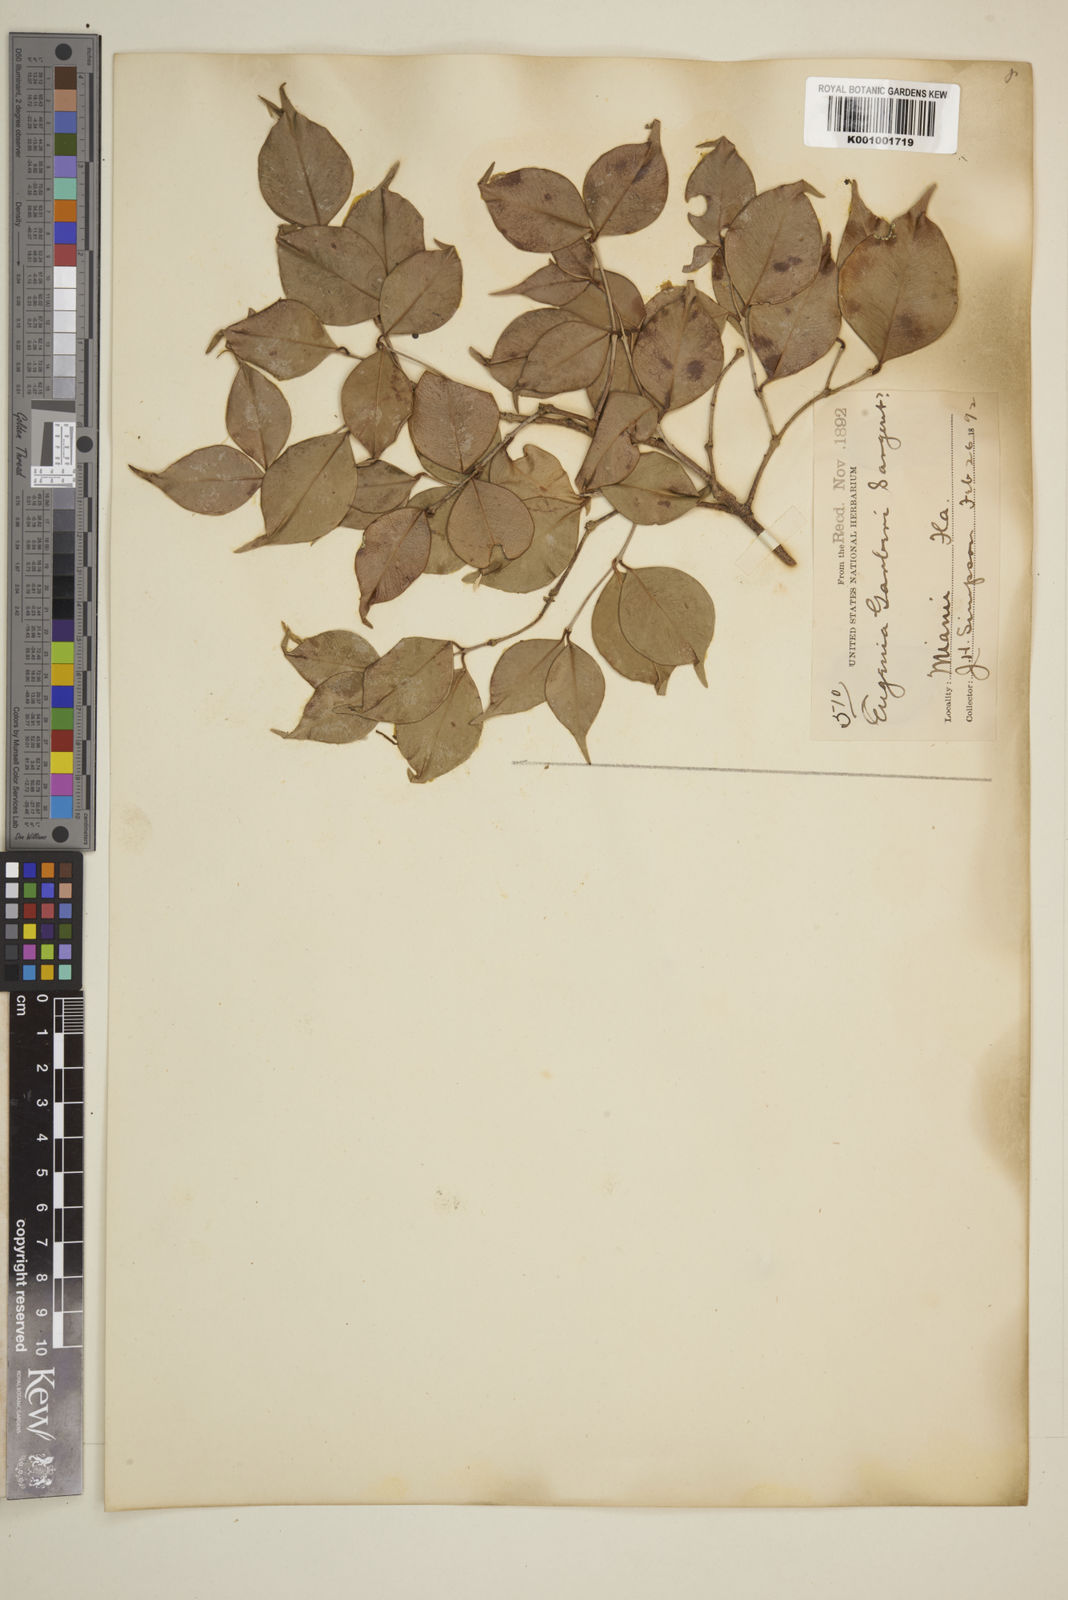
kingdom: Plantae
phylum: Tracheophyta
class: Magnoliopsida
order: Myrtales
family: Myrtaceae
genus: Eugenia
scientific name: Eugenia confusa
